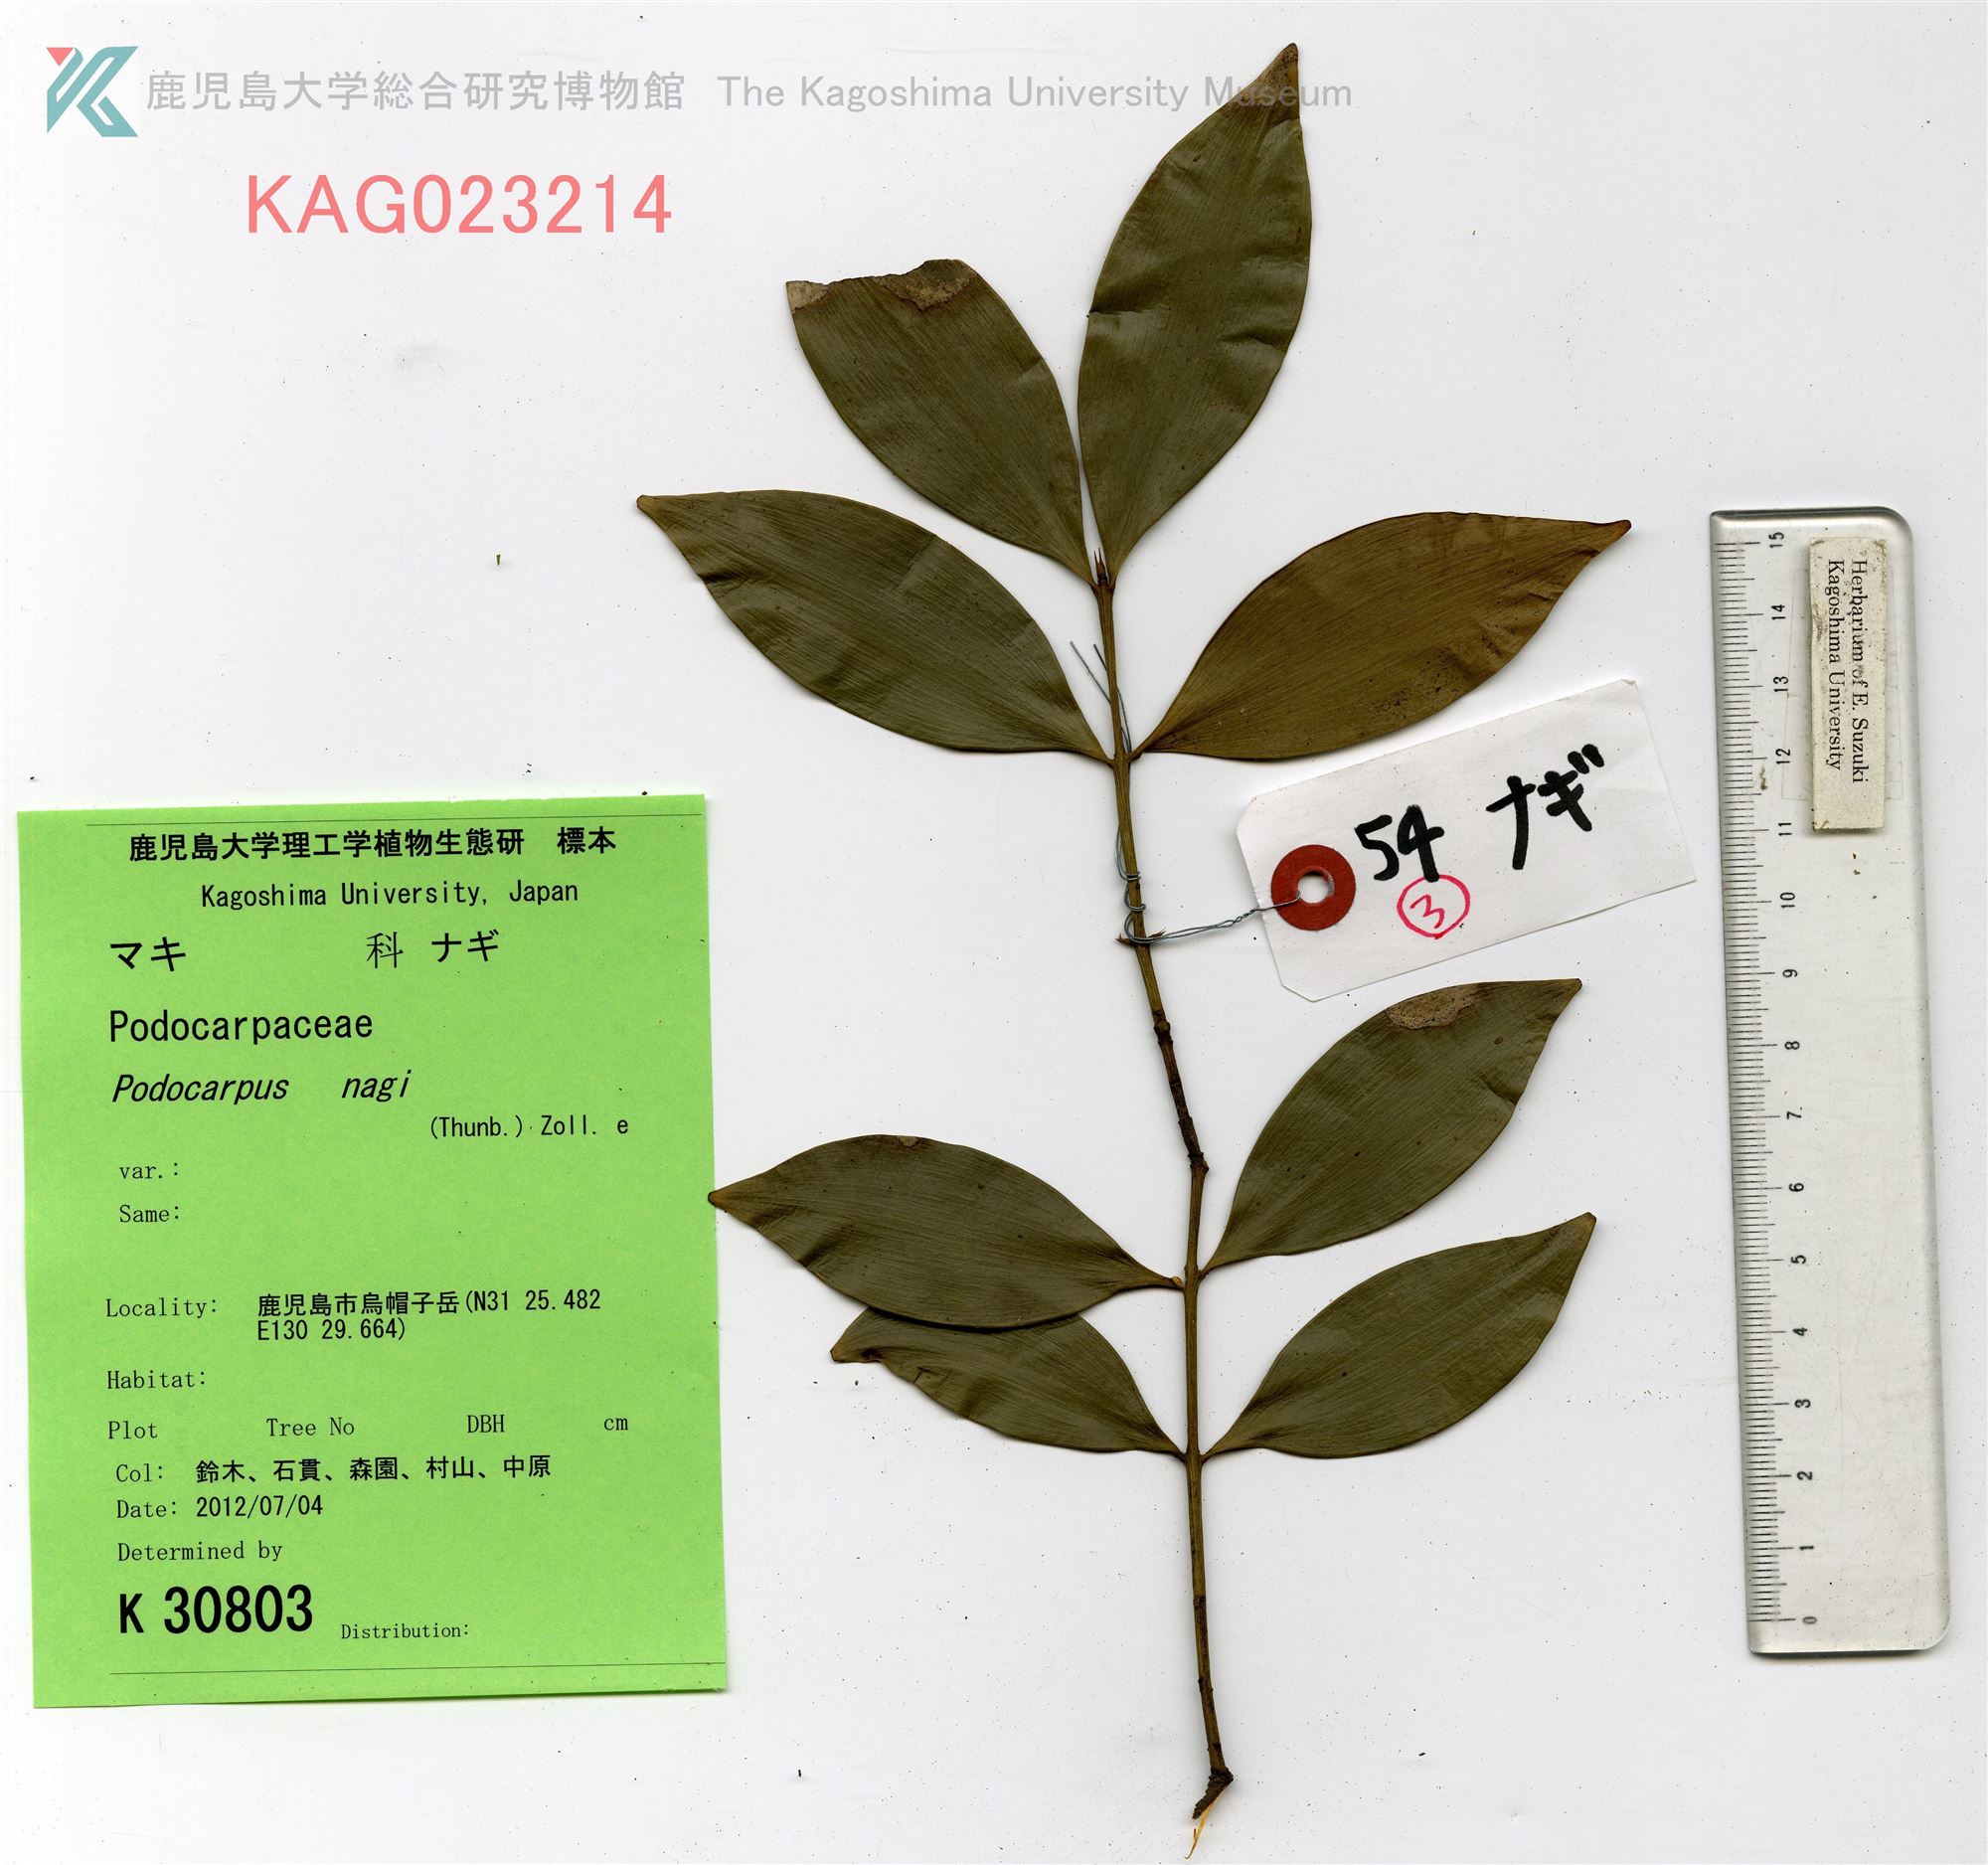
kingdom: Plantae
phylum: Tracheophyta
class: Pinopsida
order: Pinales
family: Podocarpaceae
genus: Nageia
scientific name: Nageia nagi
